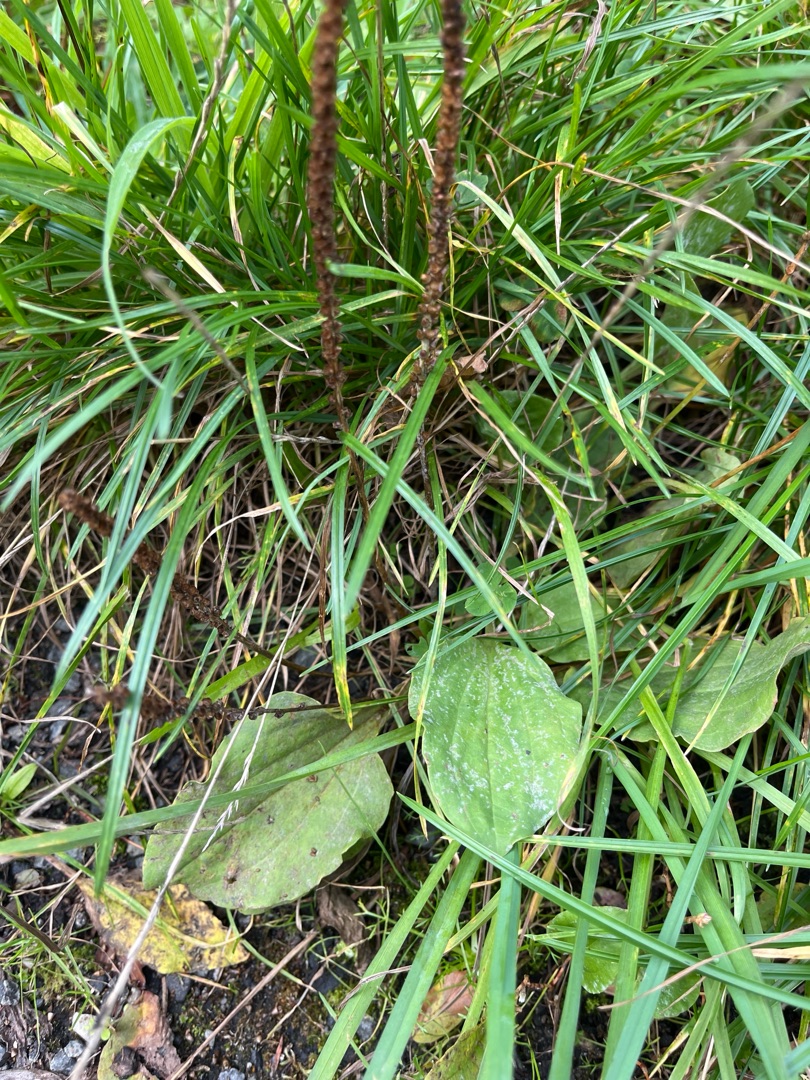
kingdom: Plantae
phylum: Tracheophyta
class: Magnoliopsida
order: Lamiales
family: Plantaginaceae
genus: Plantago
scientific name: Plantago major
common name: Glat vejbred
